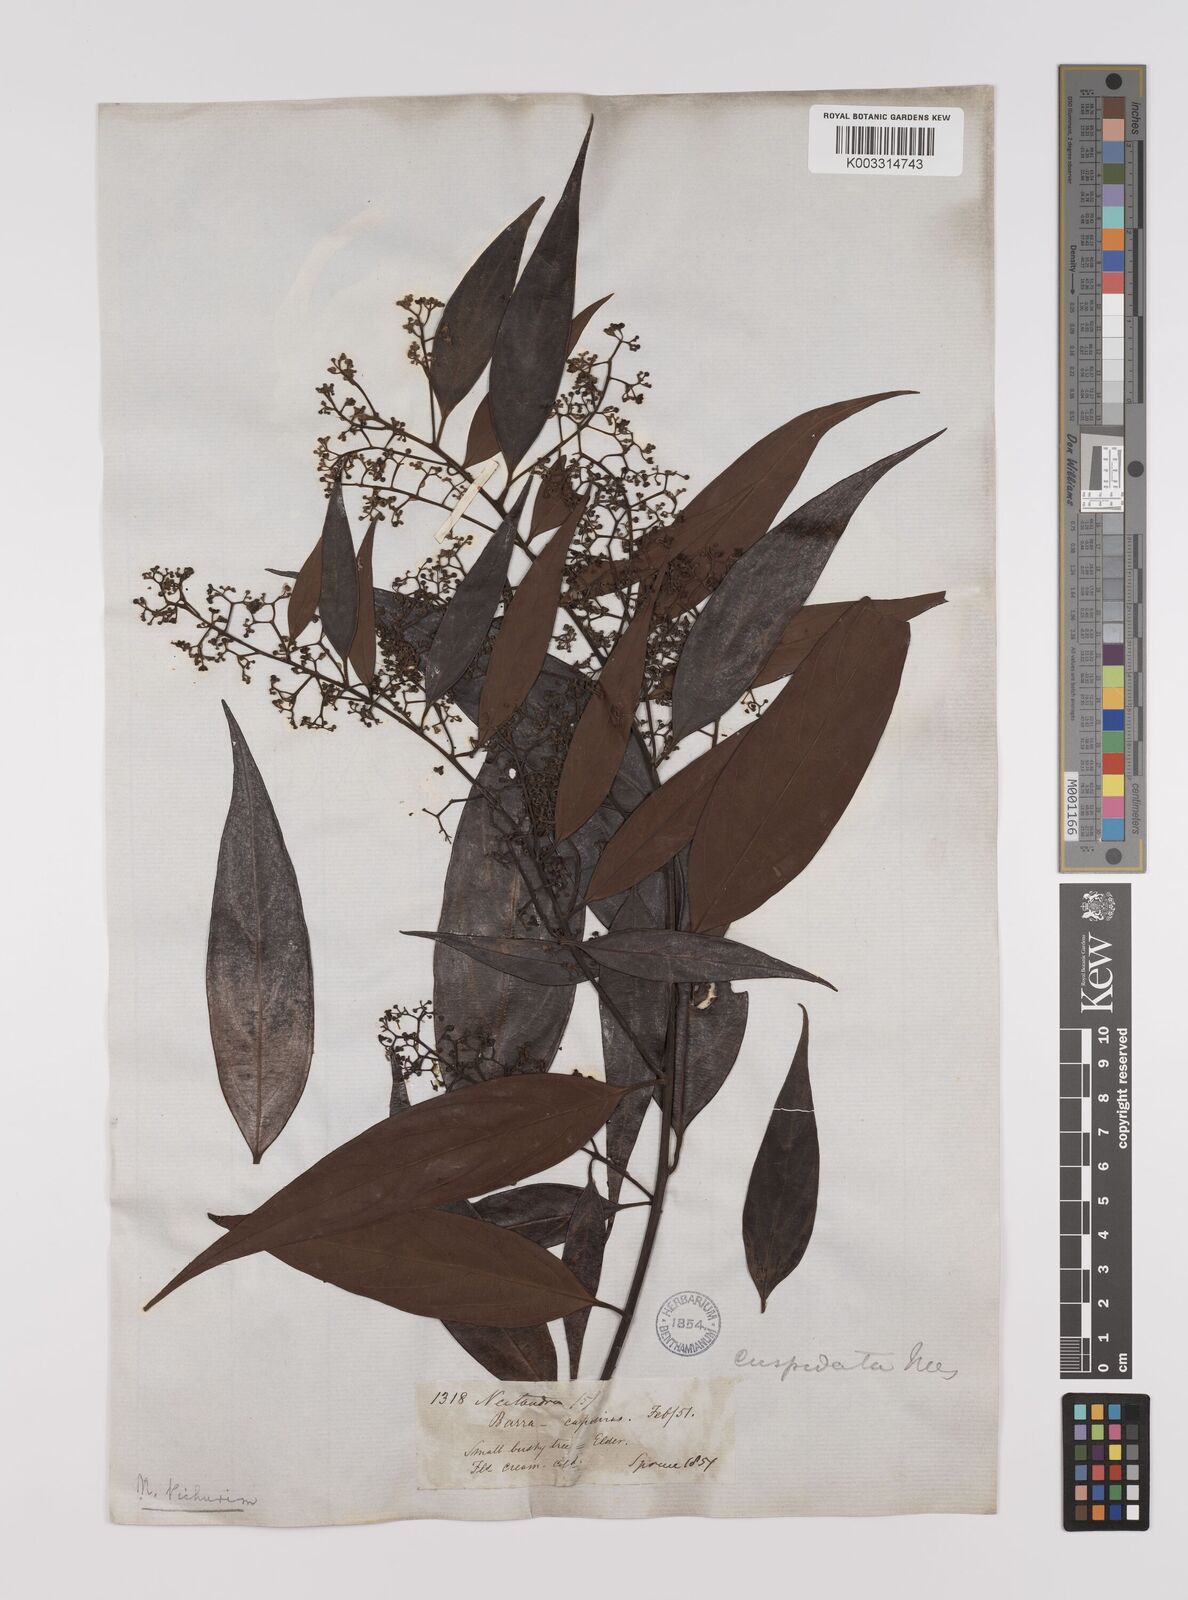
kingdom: Plantae
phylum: Tracheophyta
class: Magnoliopsida
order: Laurales
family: Lauraceae
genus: Nectandra
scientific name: Nectandra cuspidata
